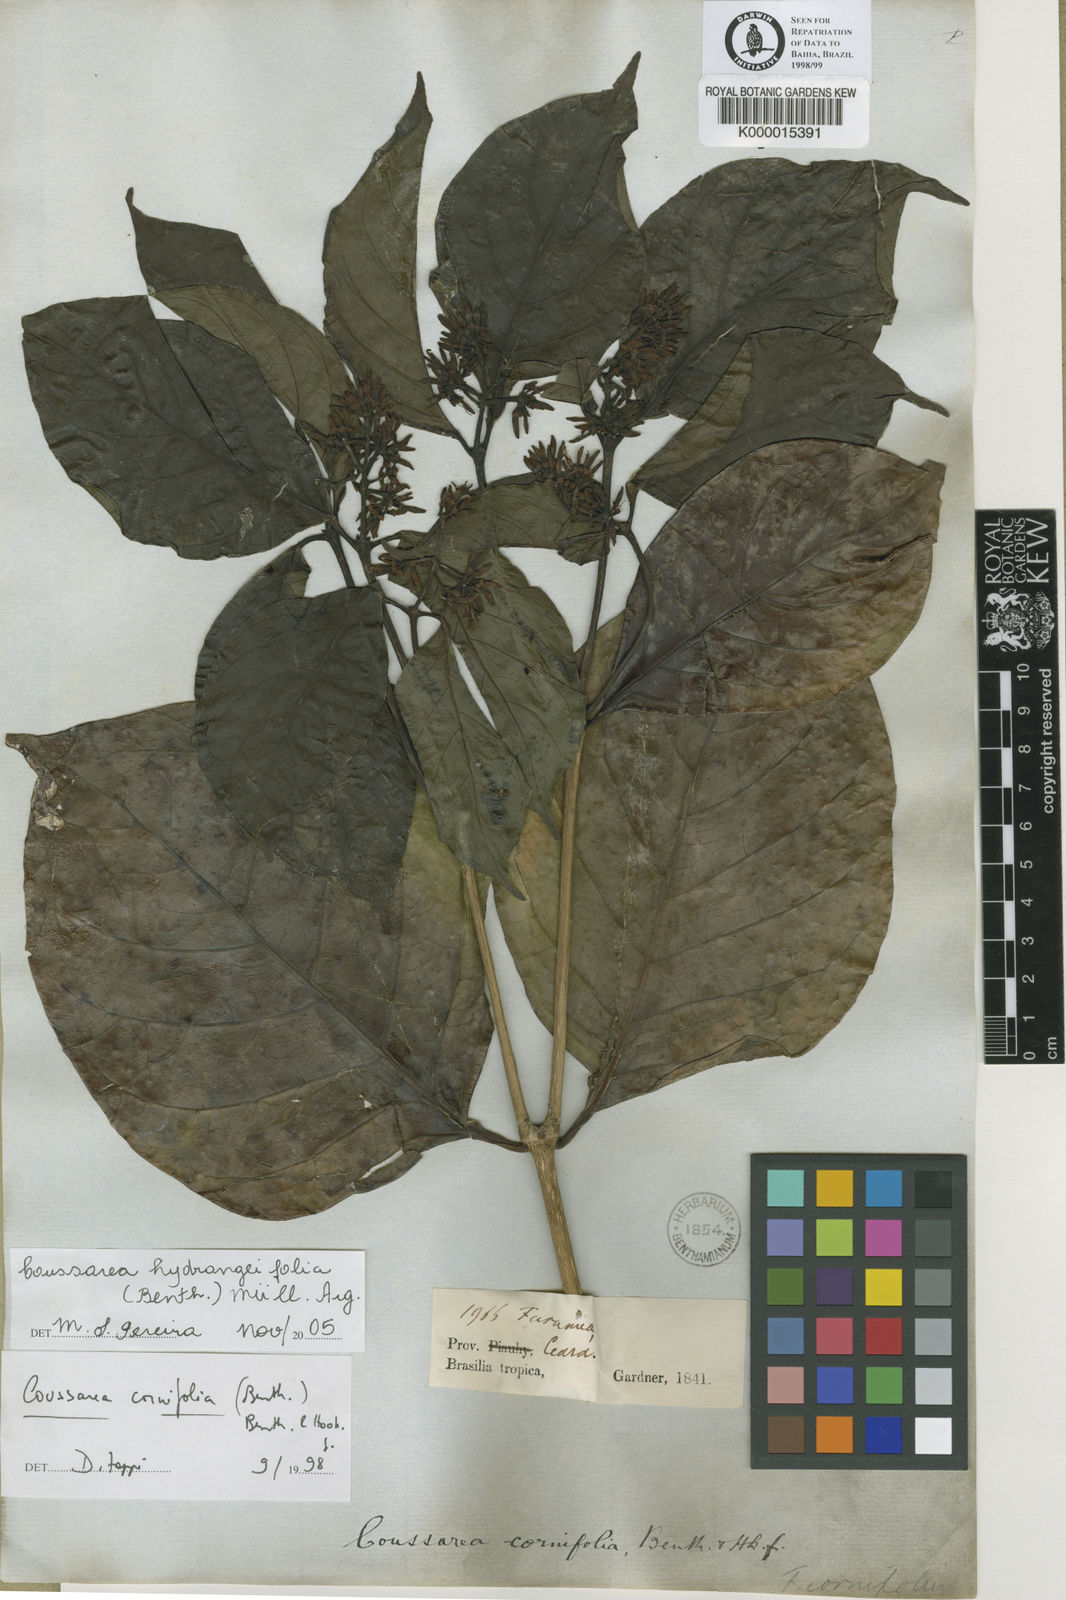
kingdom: Plantae
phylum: Tracheophyta
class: Magnoliopsida
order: Gentianales
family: Rubiaceae
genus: Coussarea
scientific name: Coussarea
